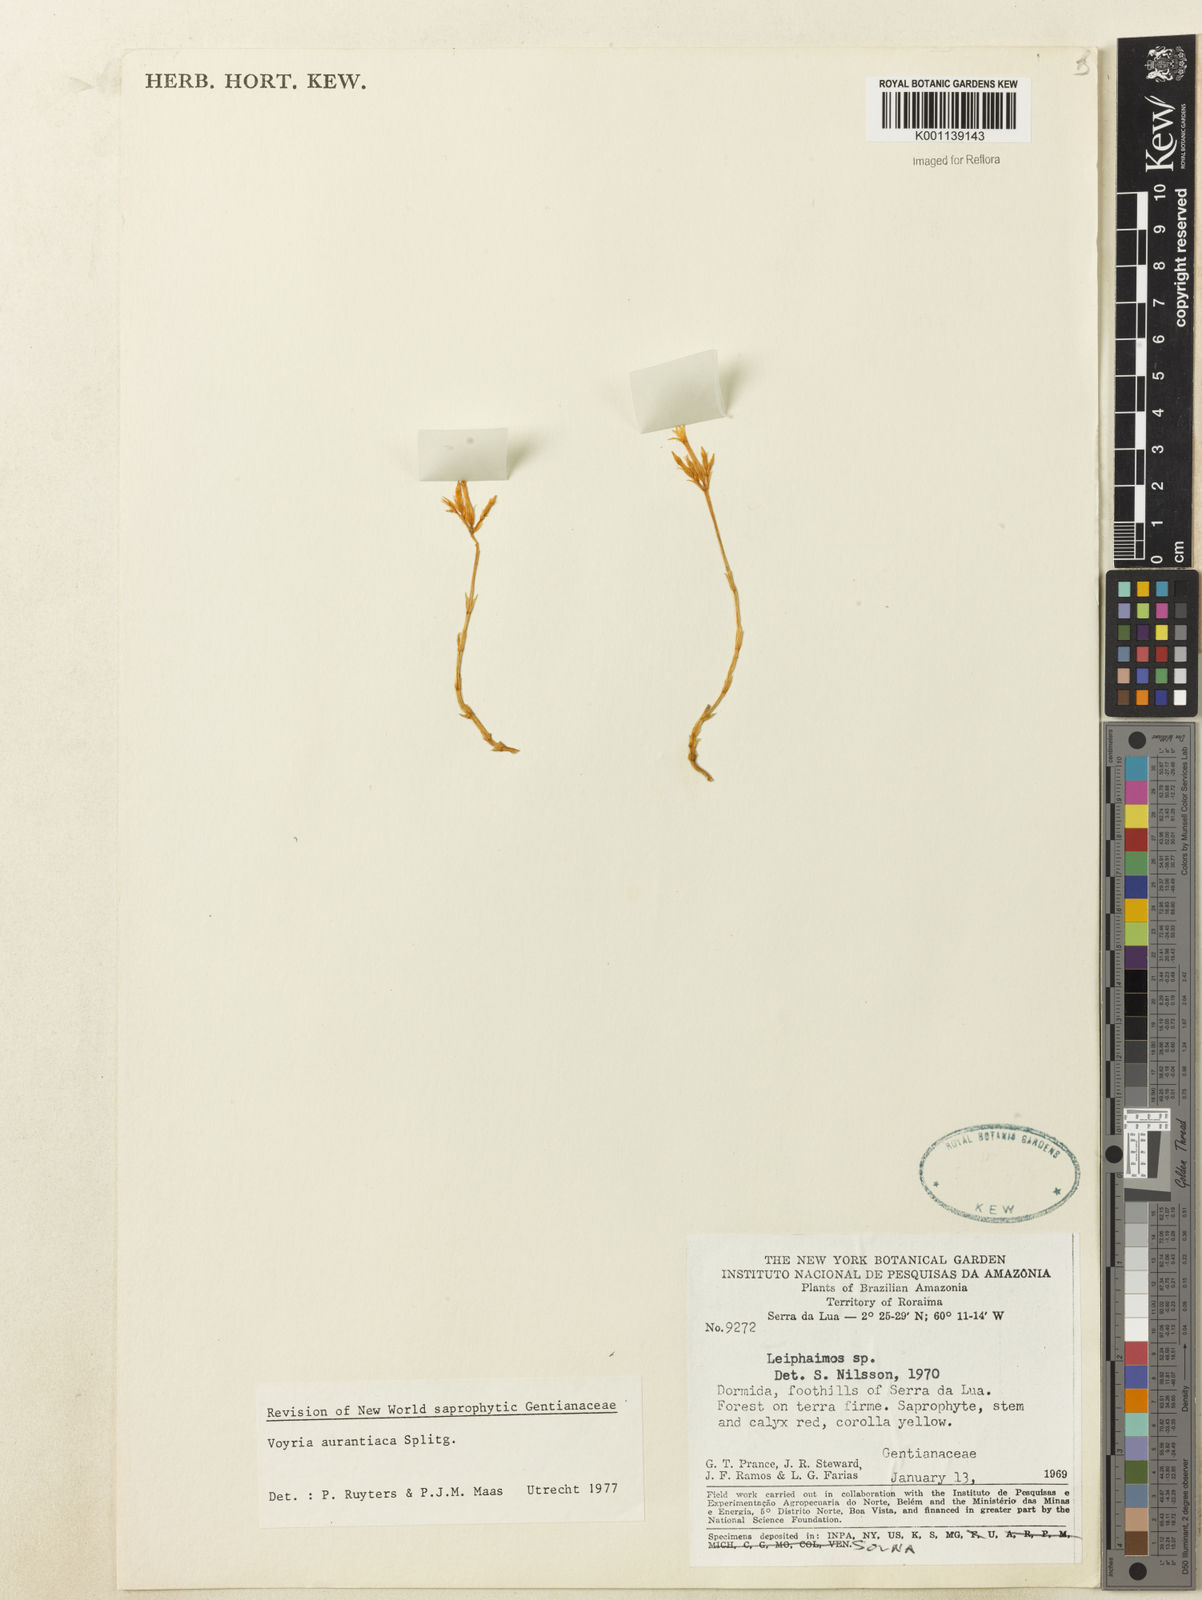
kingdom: Plantae
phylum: Tracheophyta
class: Magnoliopsida
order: Gentianales
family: Gentianaceae
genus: Voyria
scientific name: Voyria aurantiaca
